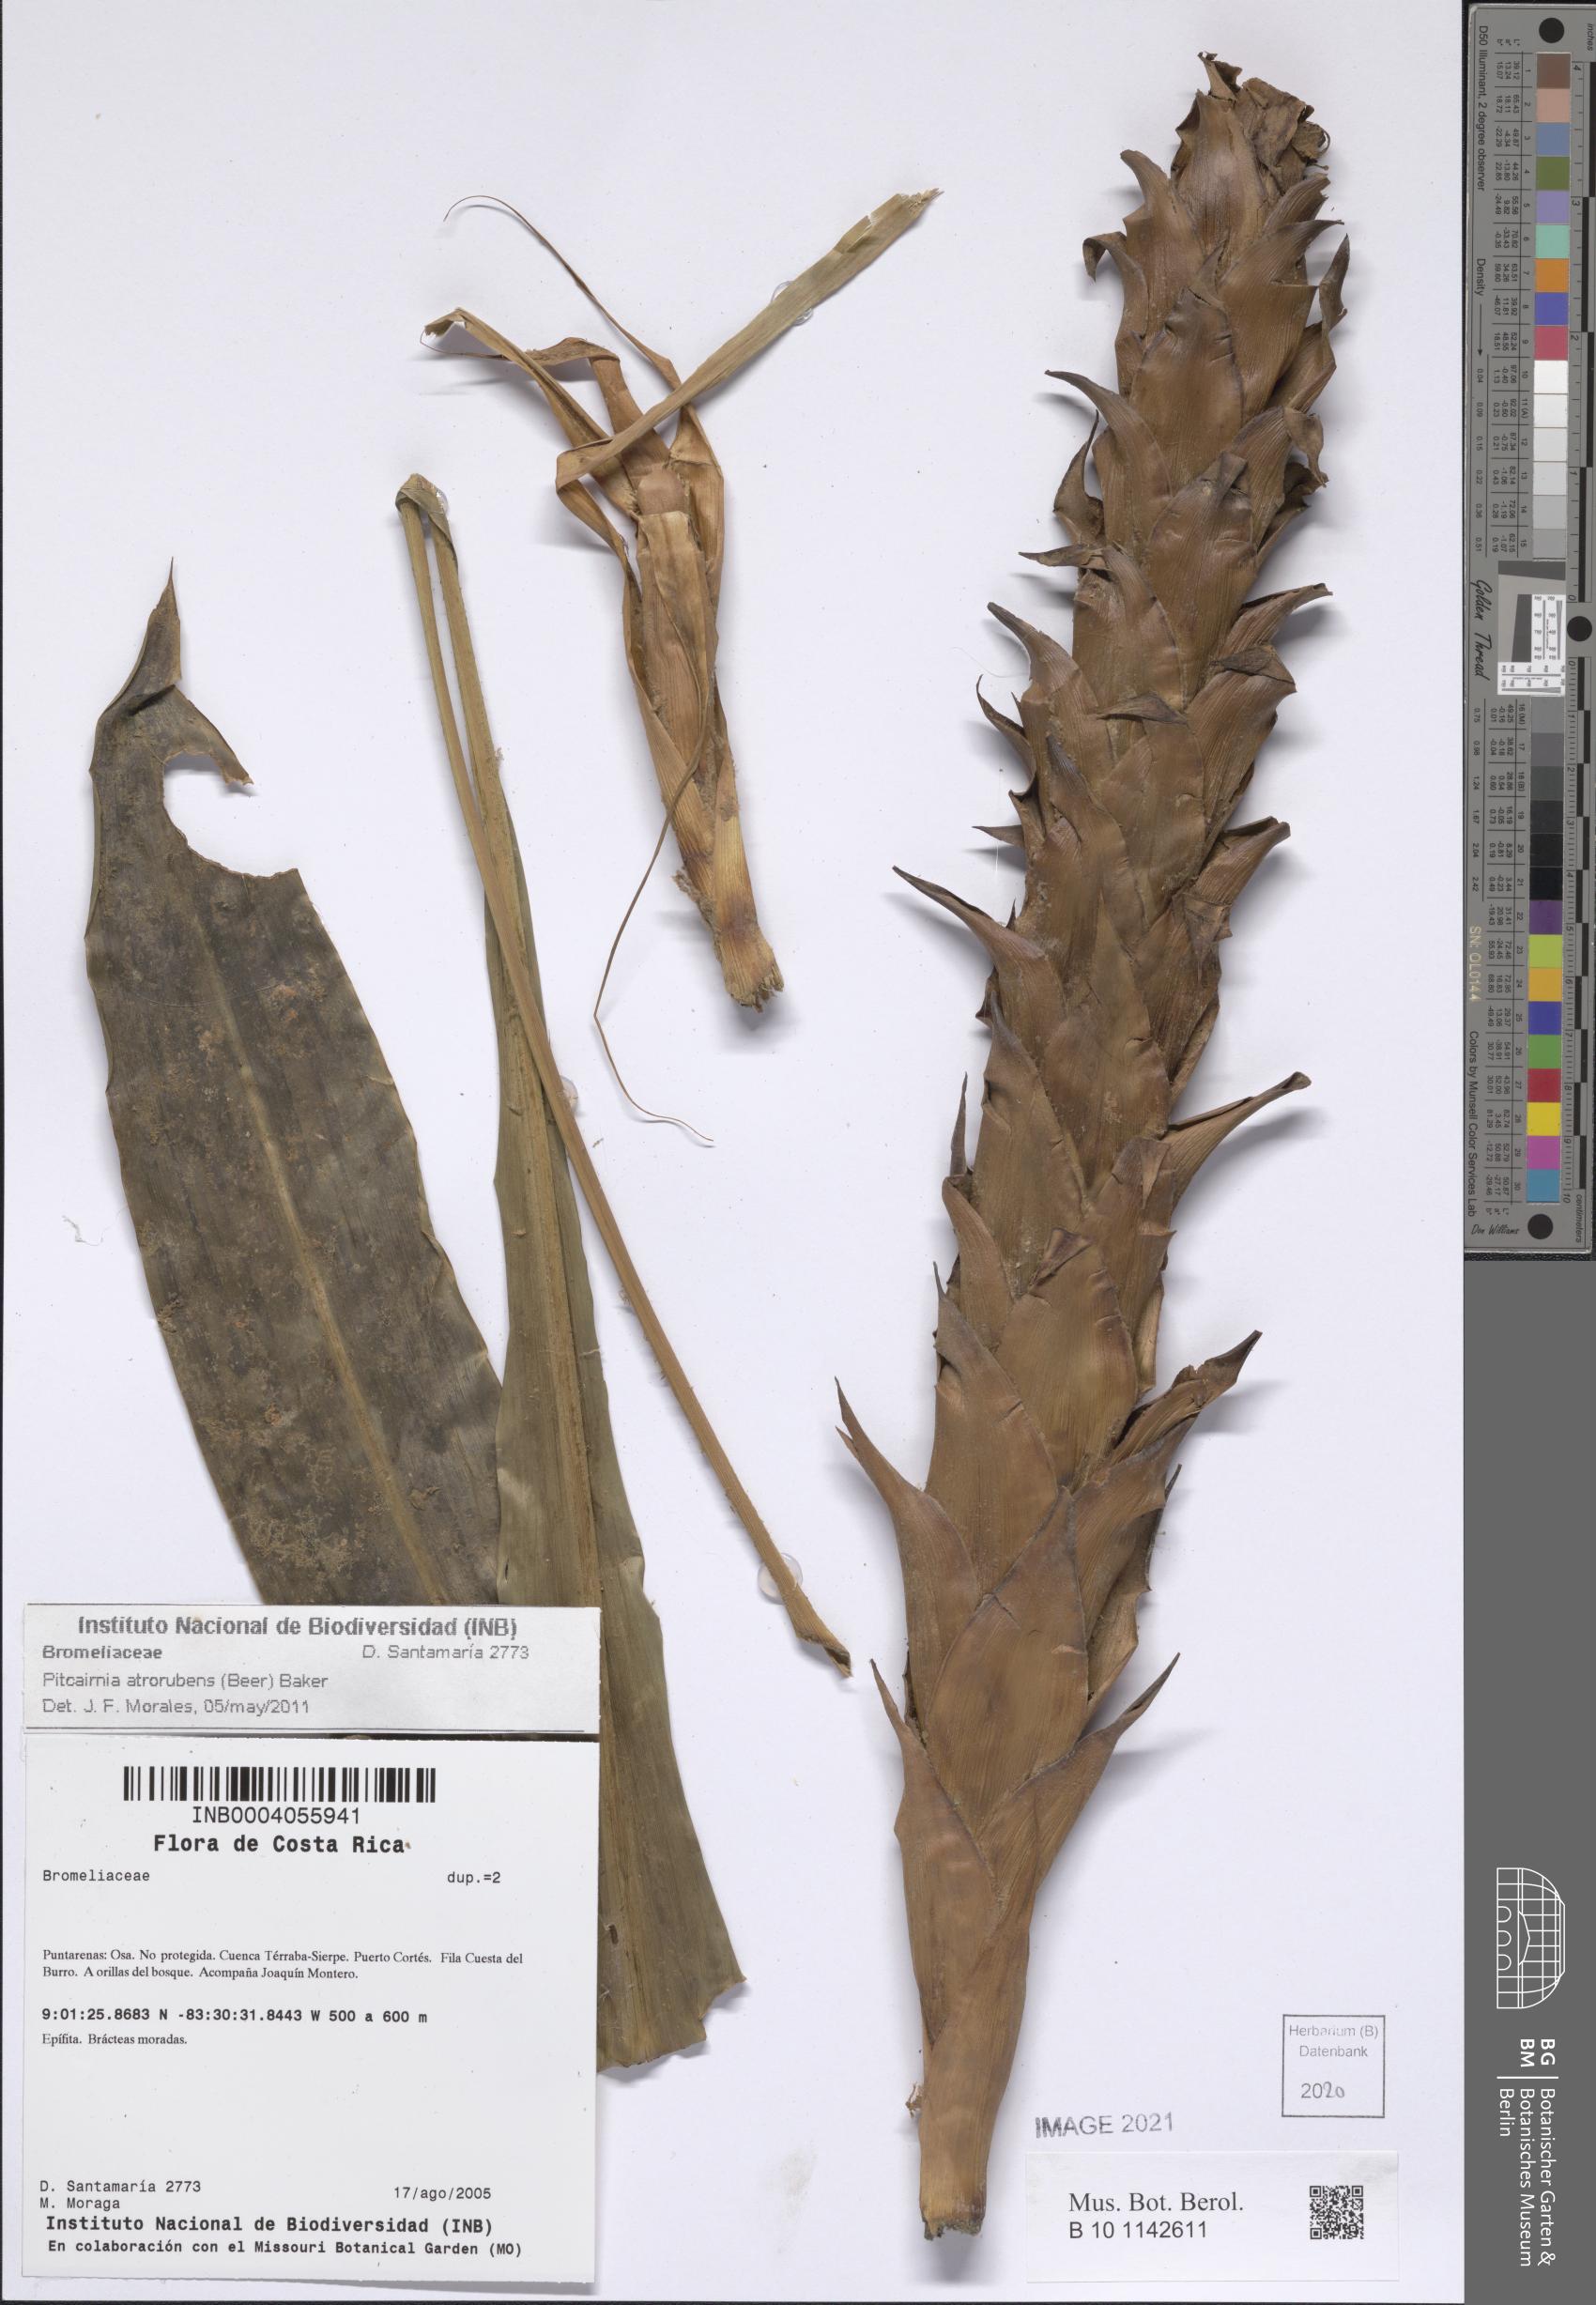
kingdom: Plantae
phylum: Tracheophyta
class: Liliopsida
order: Poales
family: Bromeliaceae
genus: Pitcairnia
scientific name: Pitcairnia atrorubens
